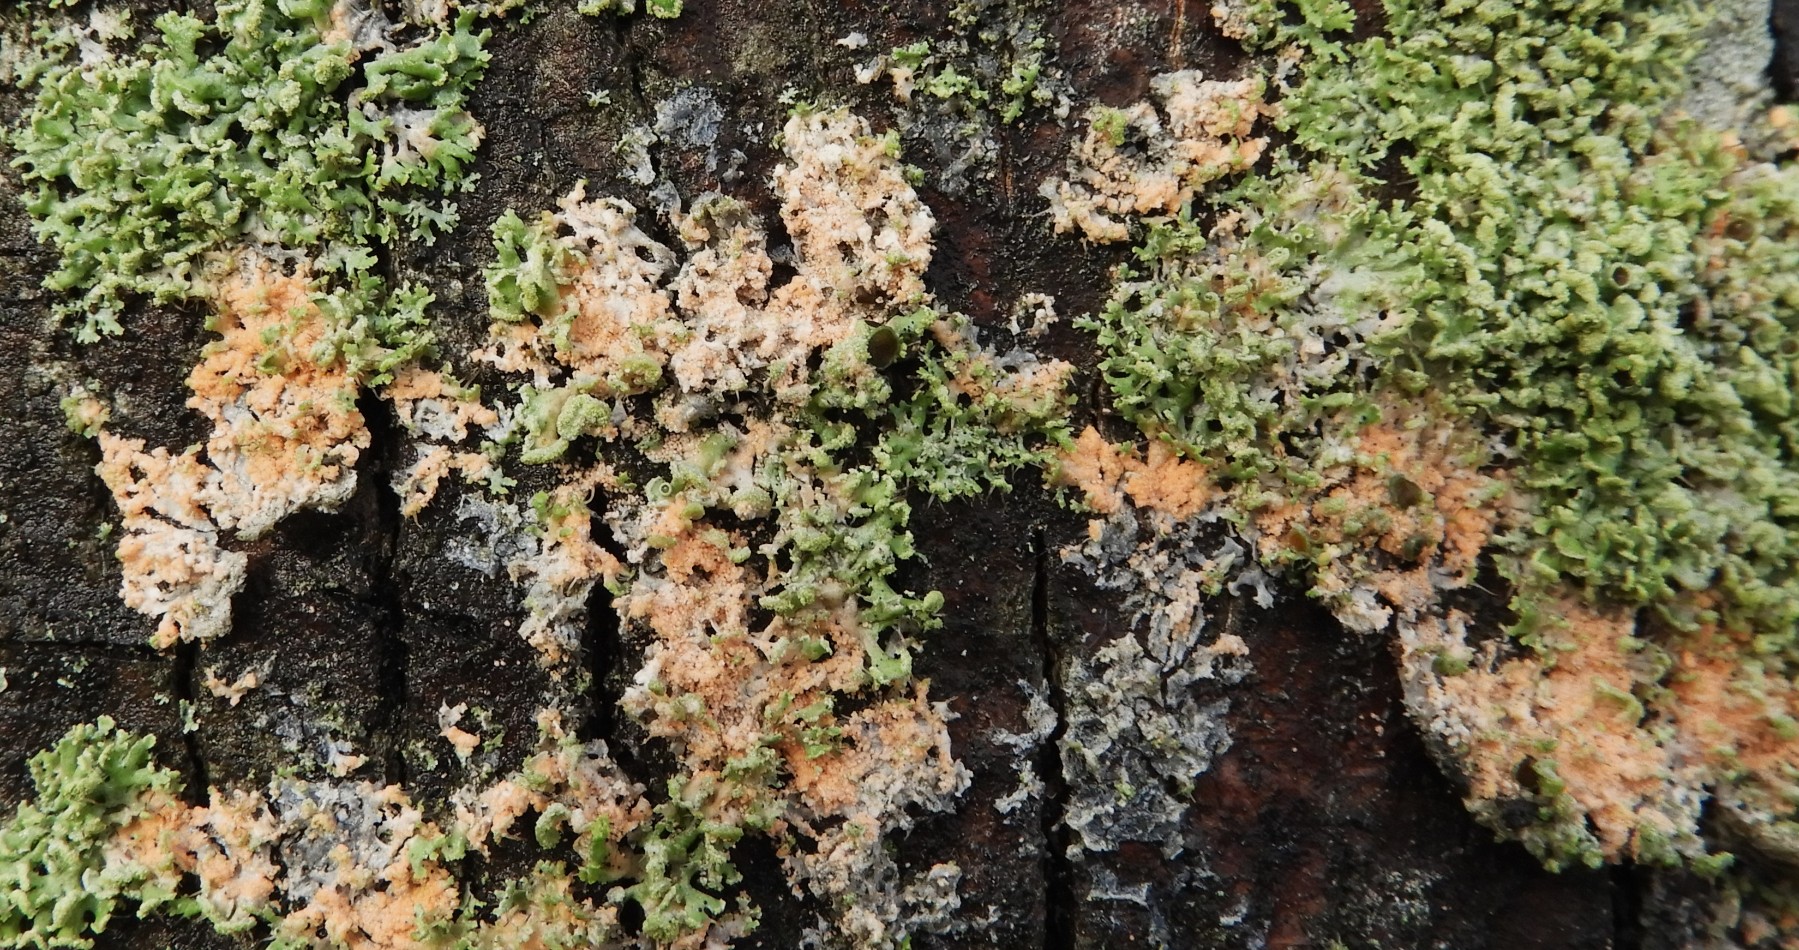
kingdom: Fungi
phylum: Basidiomycota
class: Agaricomycetes
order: Corticiales
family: Corticiaceae
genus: Erythricium
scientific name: Erythricium aurantiacum
